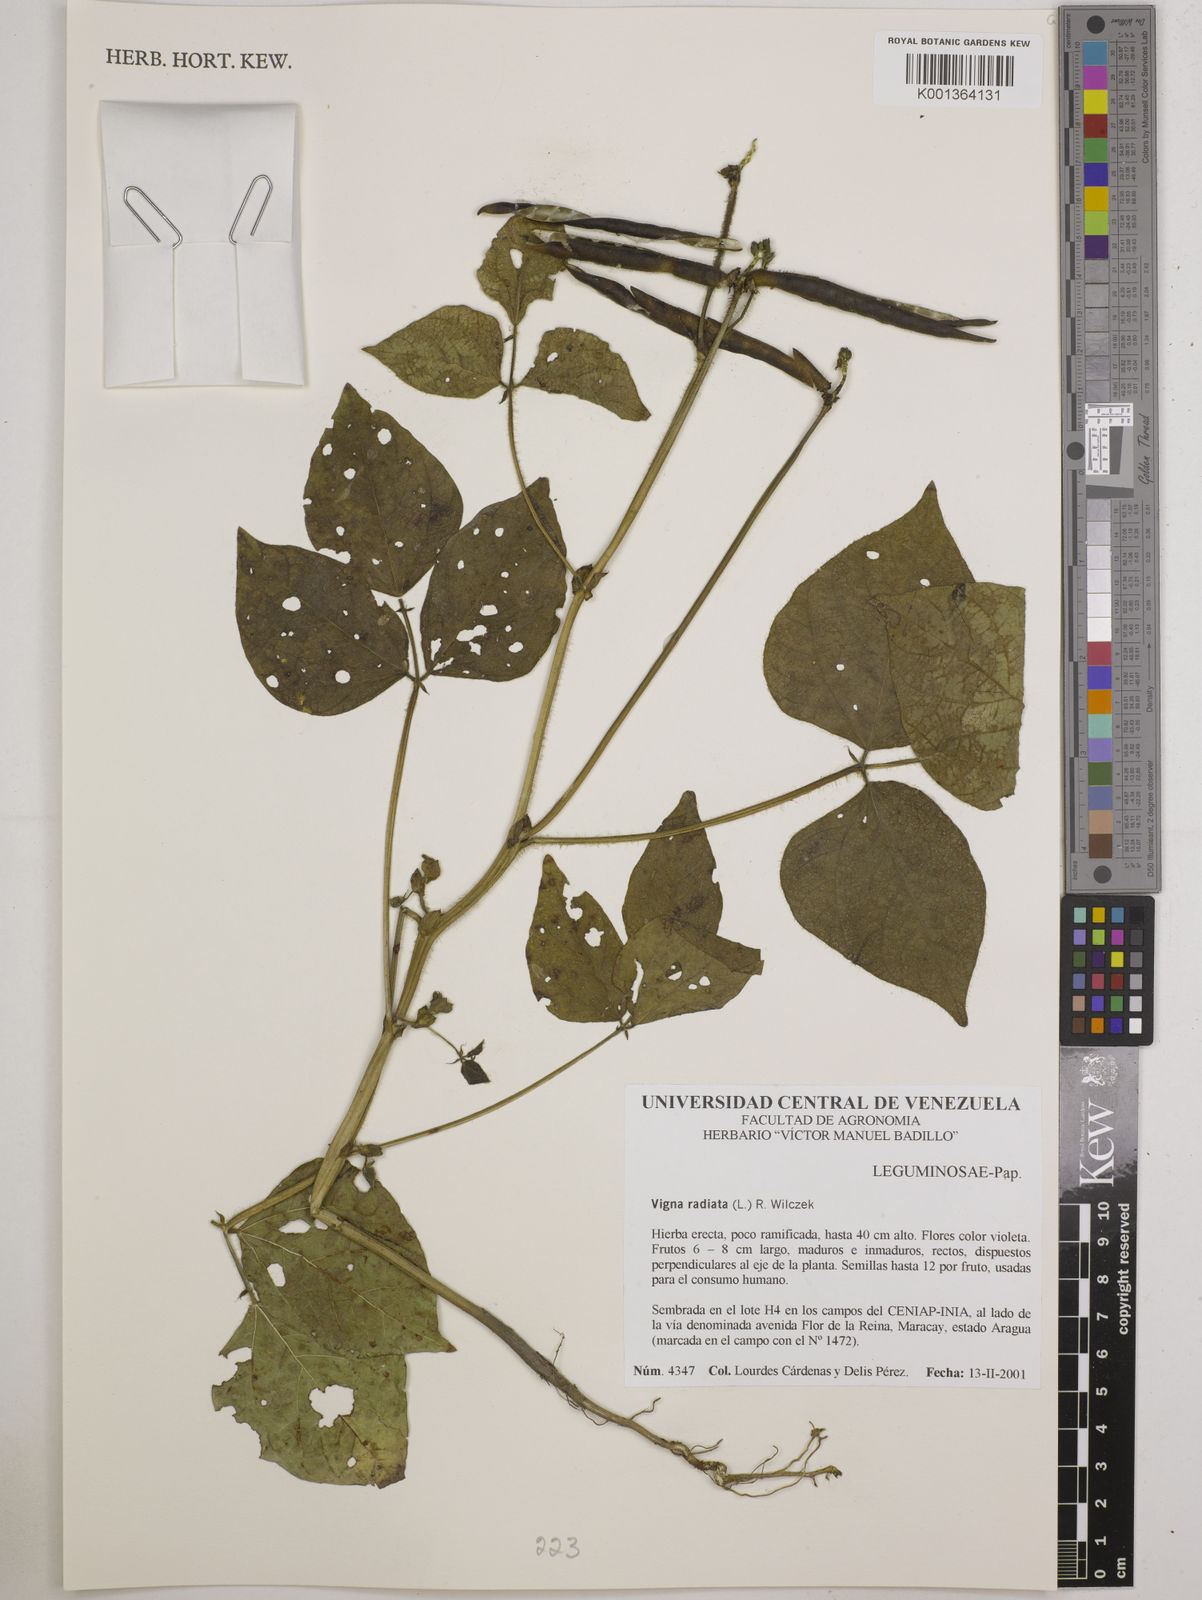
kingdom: Plantae
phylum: Tracheophyta
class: Magnoliopsida
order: Fabales
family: Fabaceae
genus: Vigna
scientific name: Vigna radiata
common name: Mung-bean
